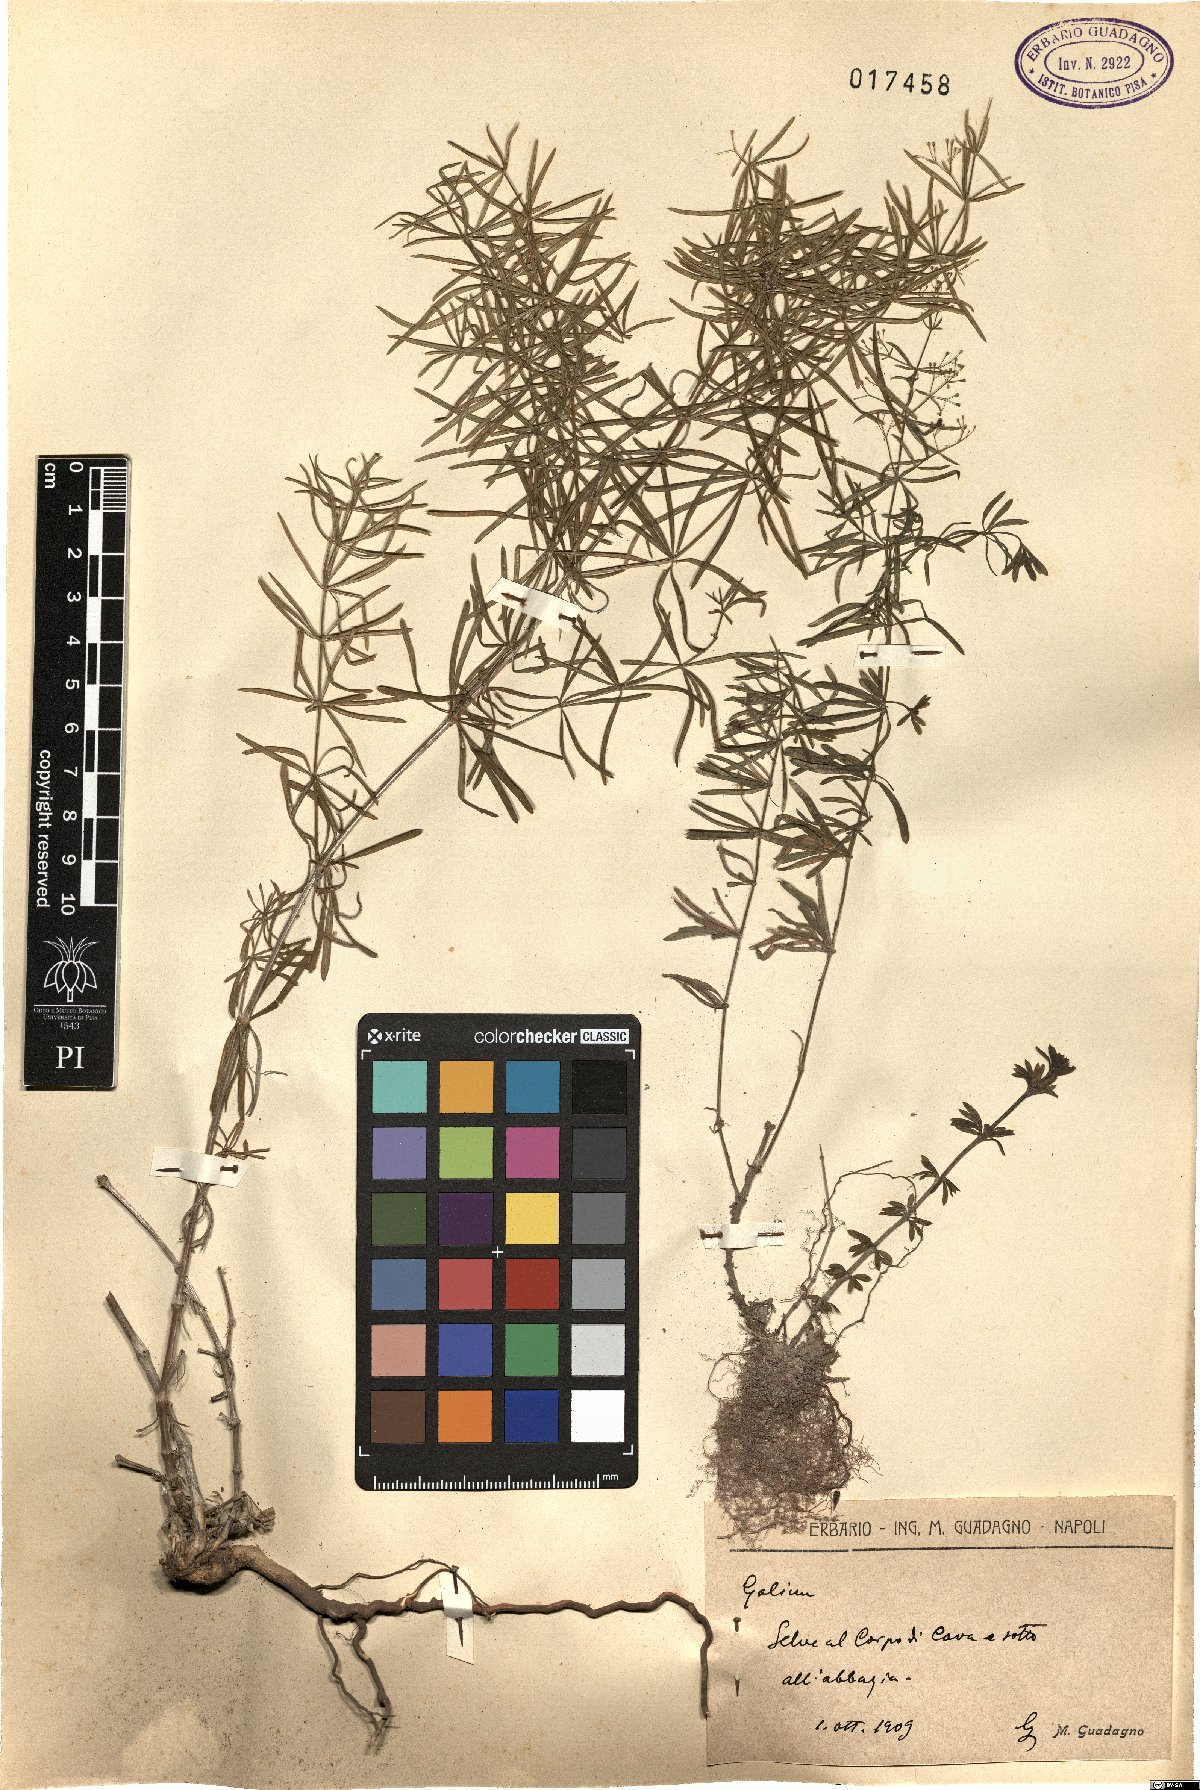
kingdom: Plantae
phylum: Tracheophyta
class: Magnoliopsida
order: Gentianales
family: Rubiaceae
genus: Galium
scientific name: Galium
